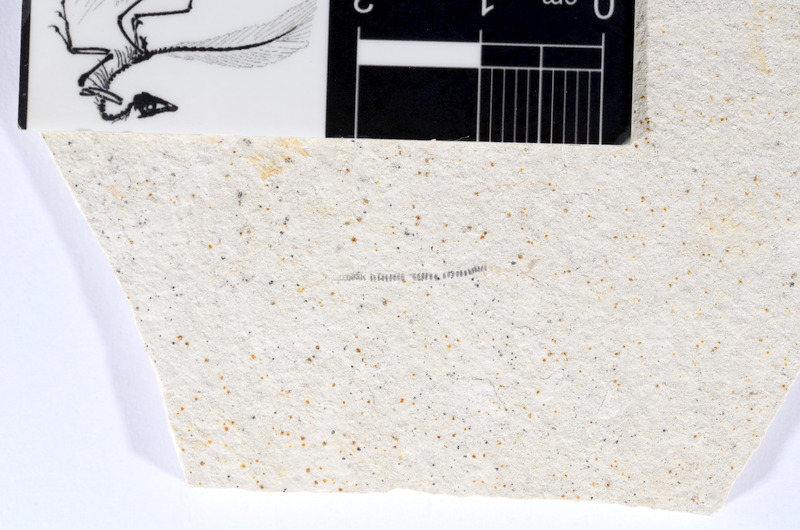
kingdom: Animalia
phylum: Chordata
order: Salmoniformes
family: Orthogonikleithridae
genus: Orthogonikleithrus
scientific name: Orthogonikleithrus hoelli
